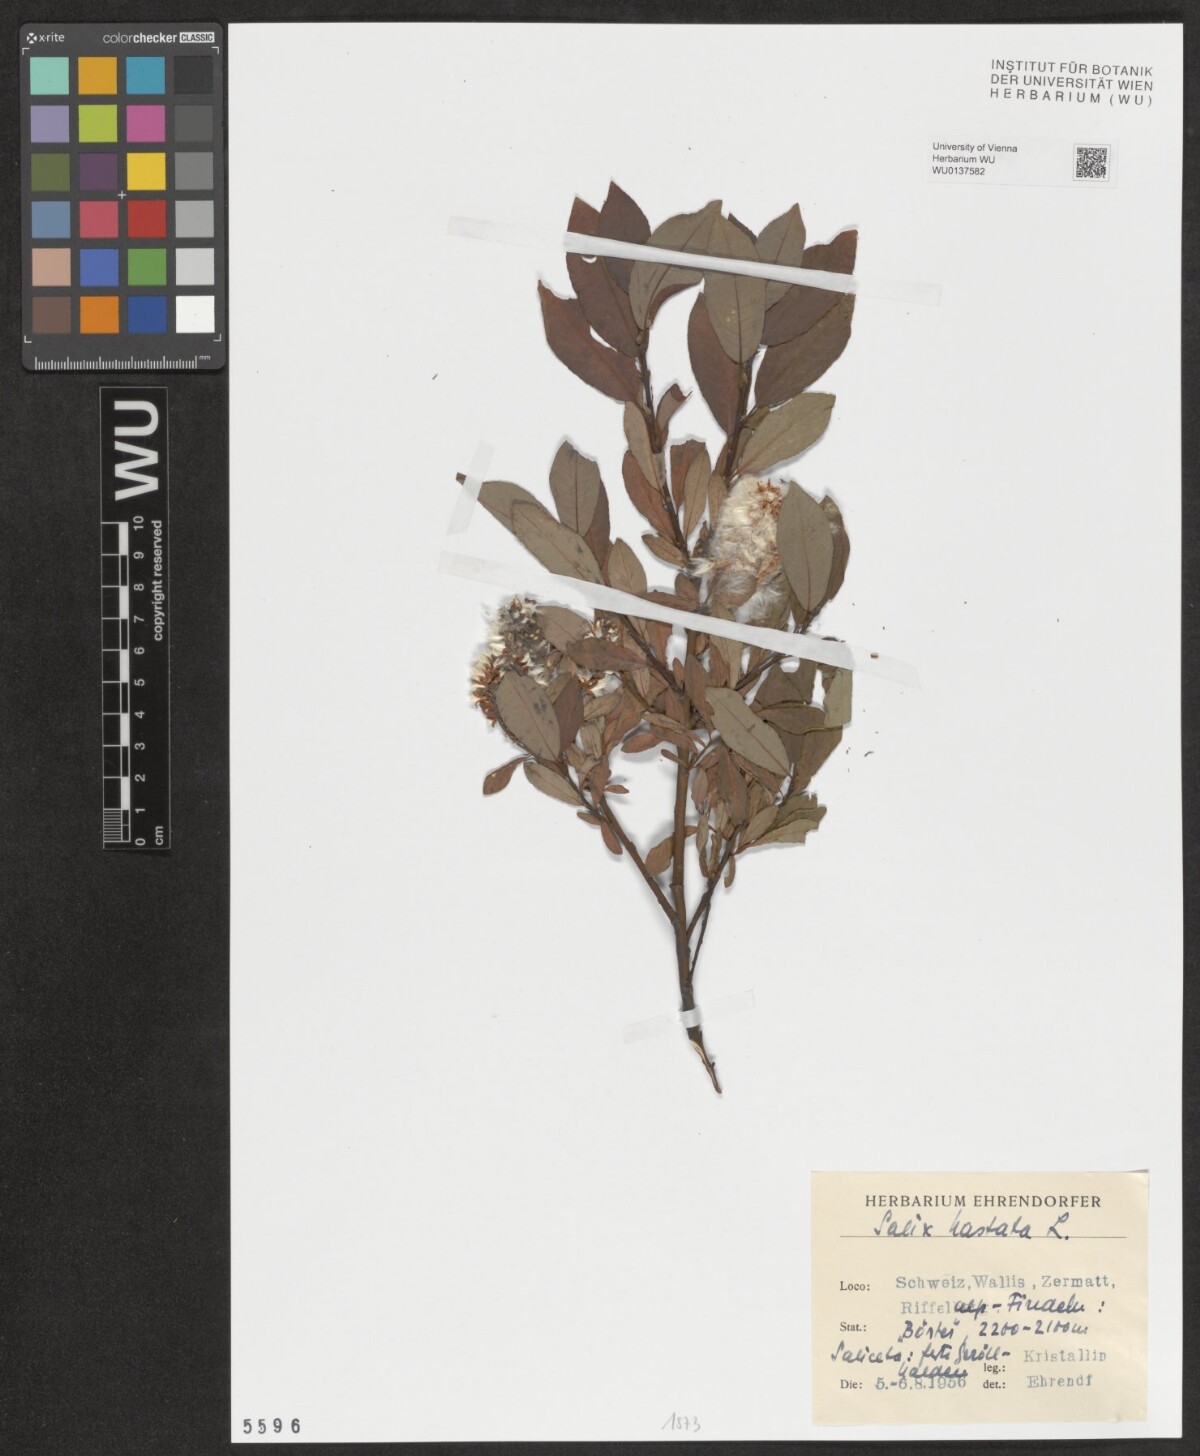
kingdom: Plantae
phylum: Tracheophyta
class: Magnoliopsida
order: Malpighiales
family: Salicaceae
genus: Salix
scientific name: Salix hastata
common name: Halberd willow
